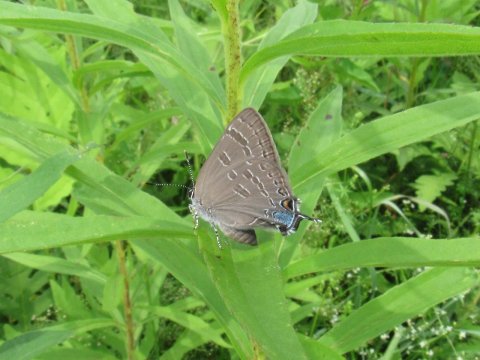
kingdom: Animalia
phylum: Arthropoda
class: Insecta
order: Lepidoptera
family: Lycaenidae
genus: Strymon
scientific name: Strymon caryaevorus
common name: Hickory Hairstreak
